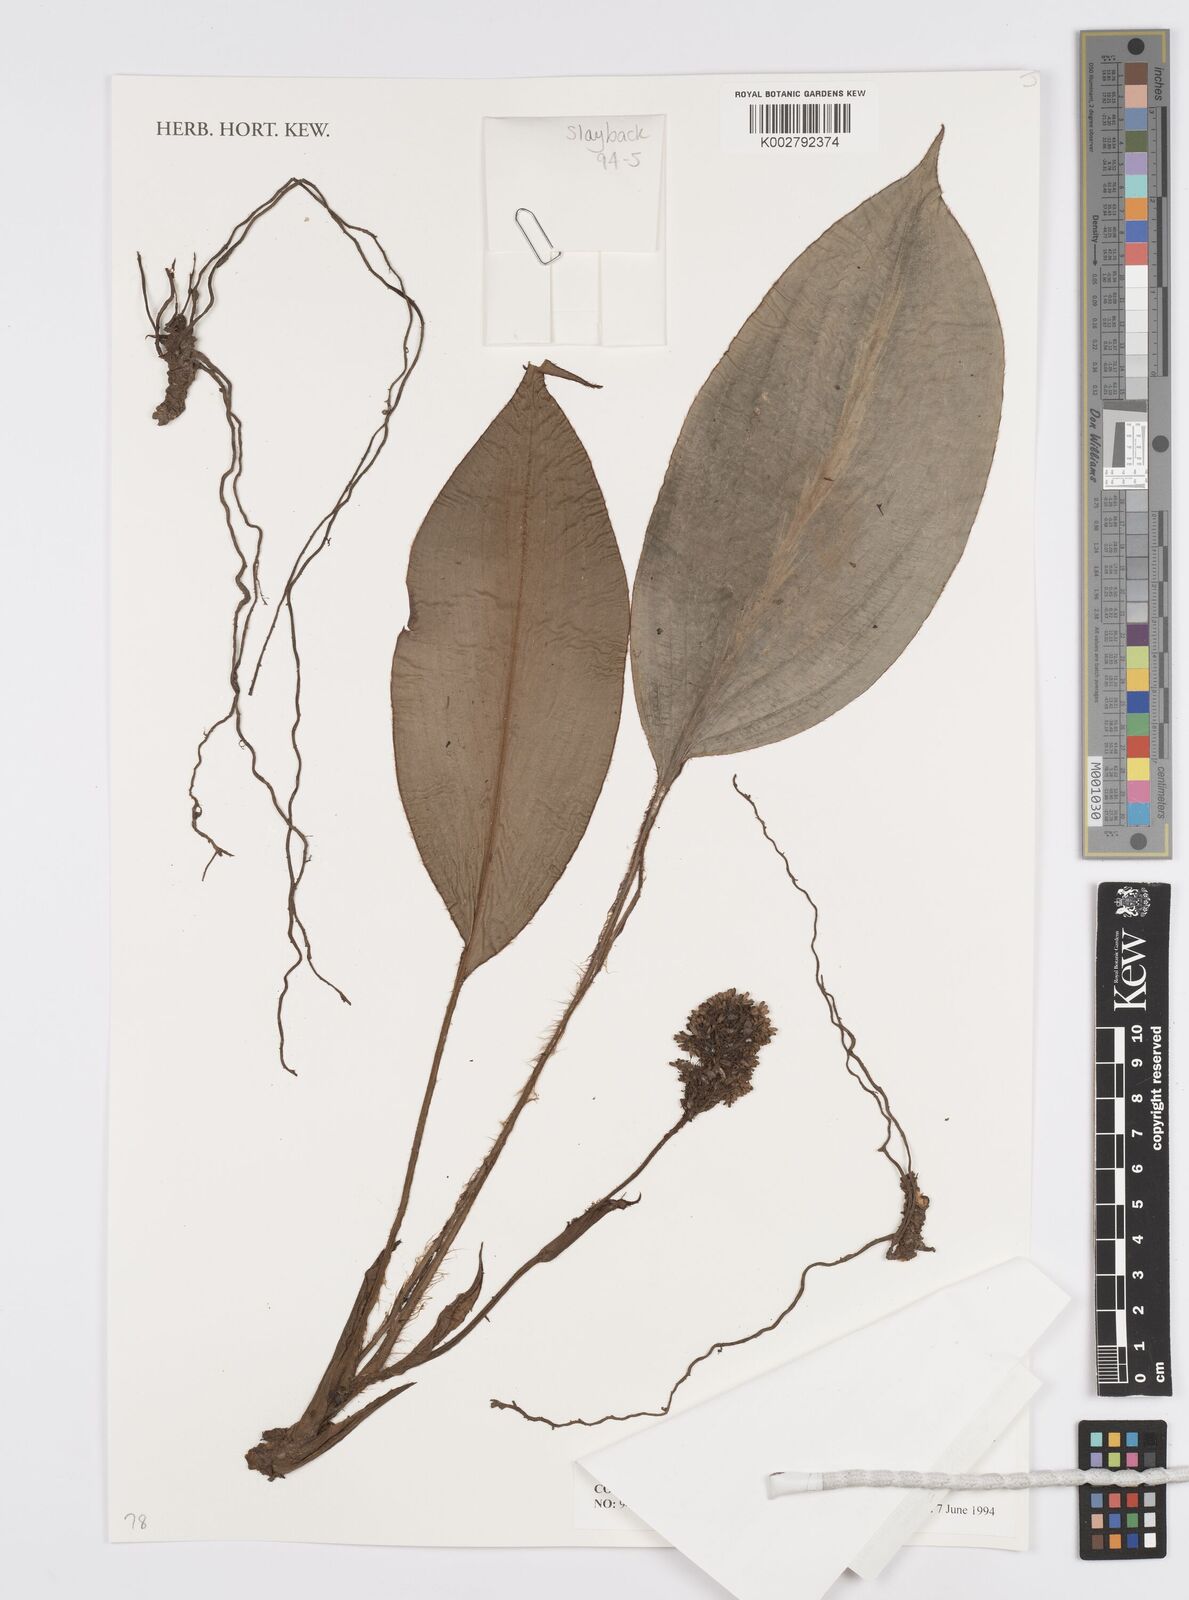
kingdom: Plantae
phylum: Tracheophyta
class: Liliopsida
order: Commelinales
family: Commelinaceae
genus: Palisota
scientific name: Palisota barteri
